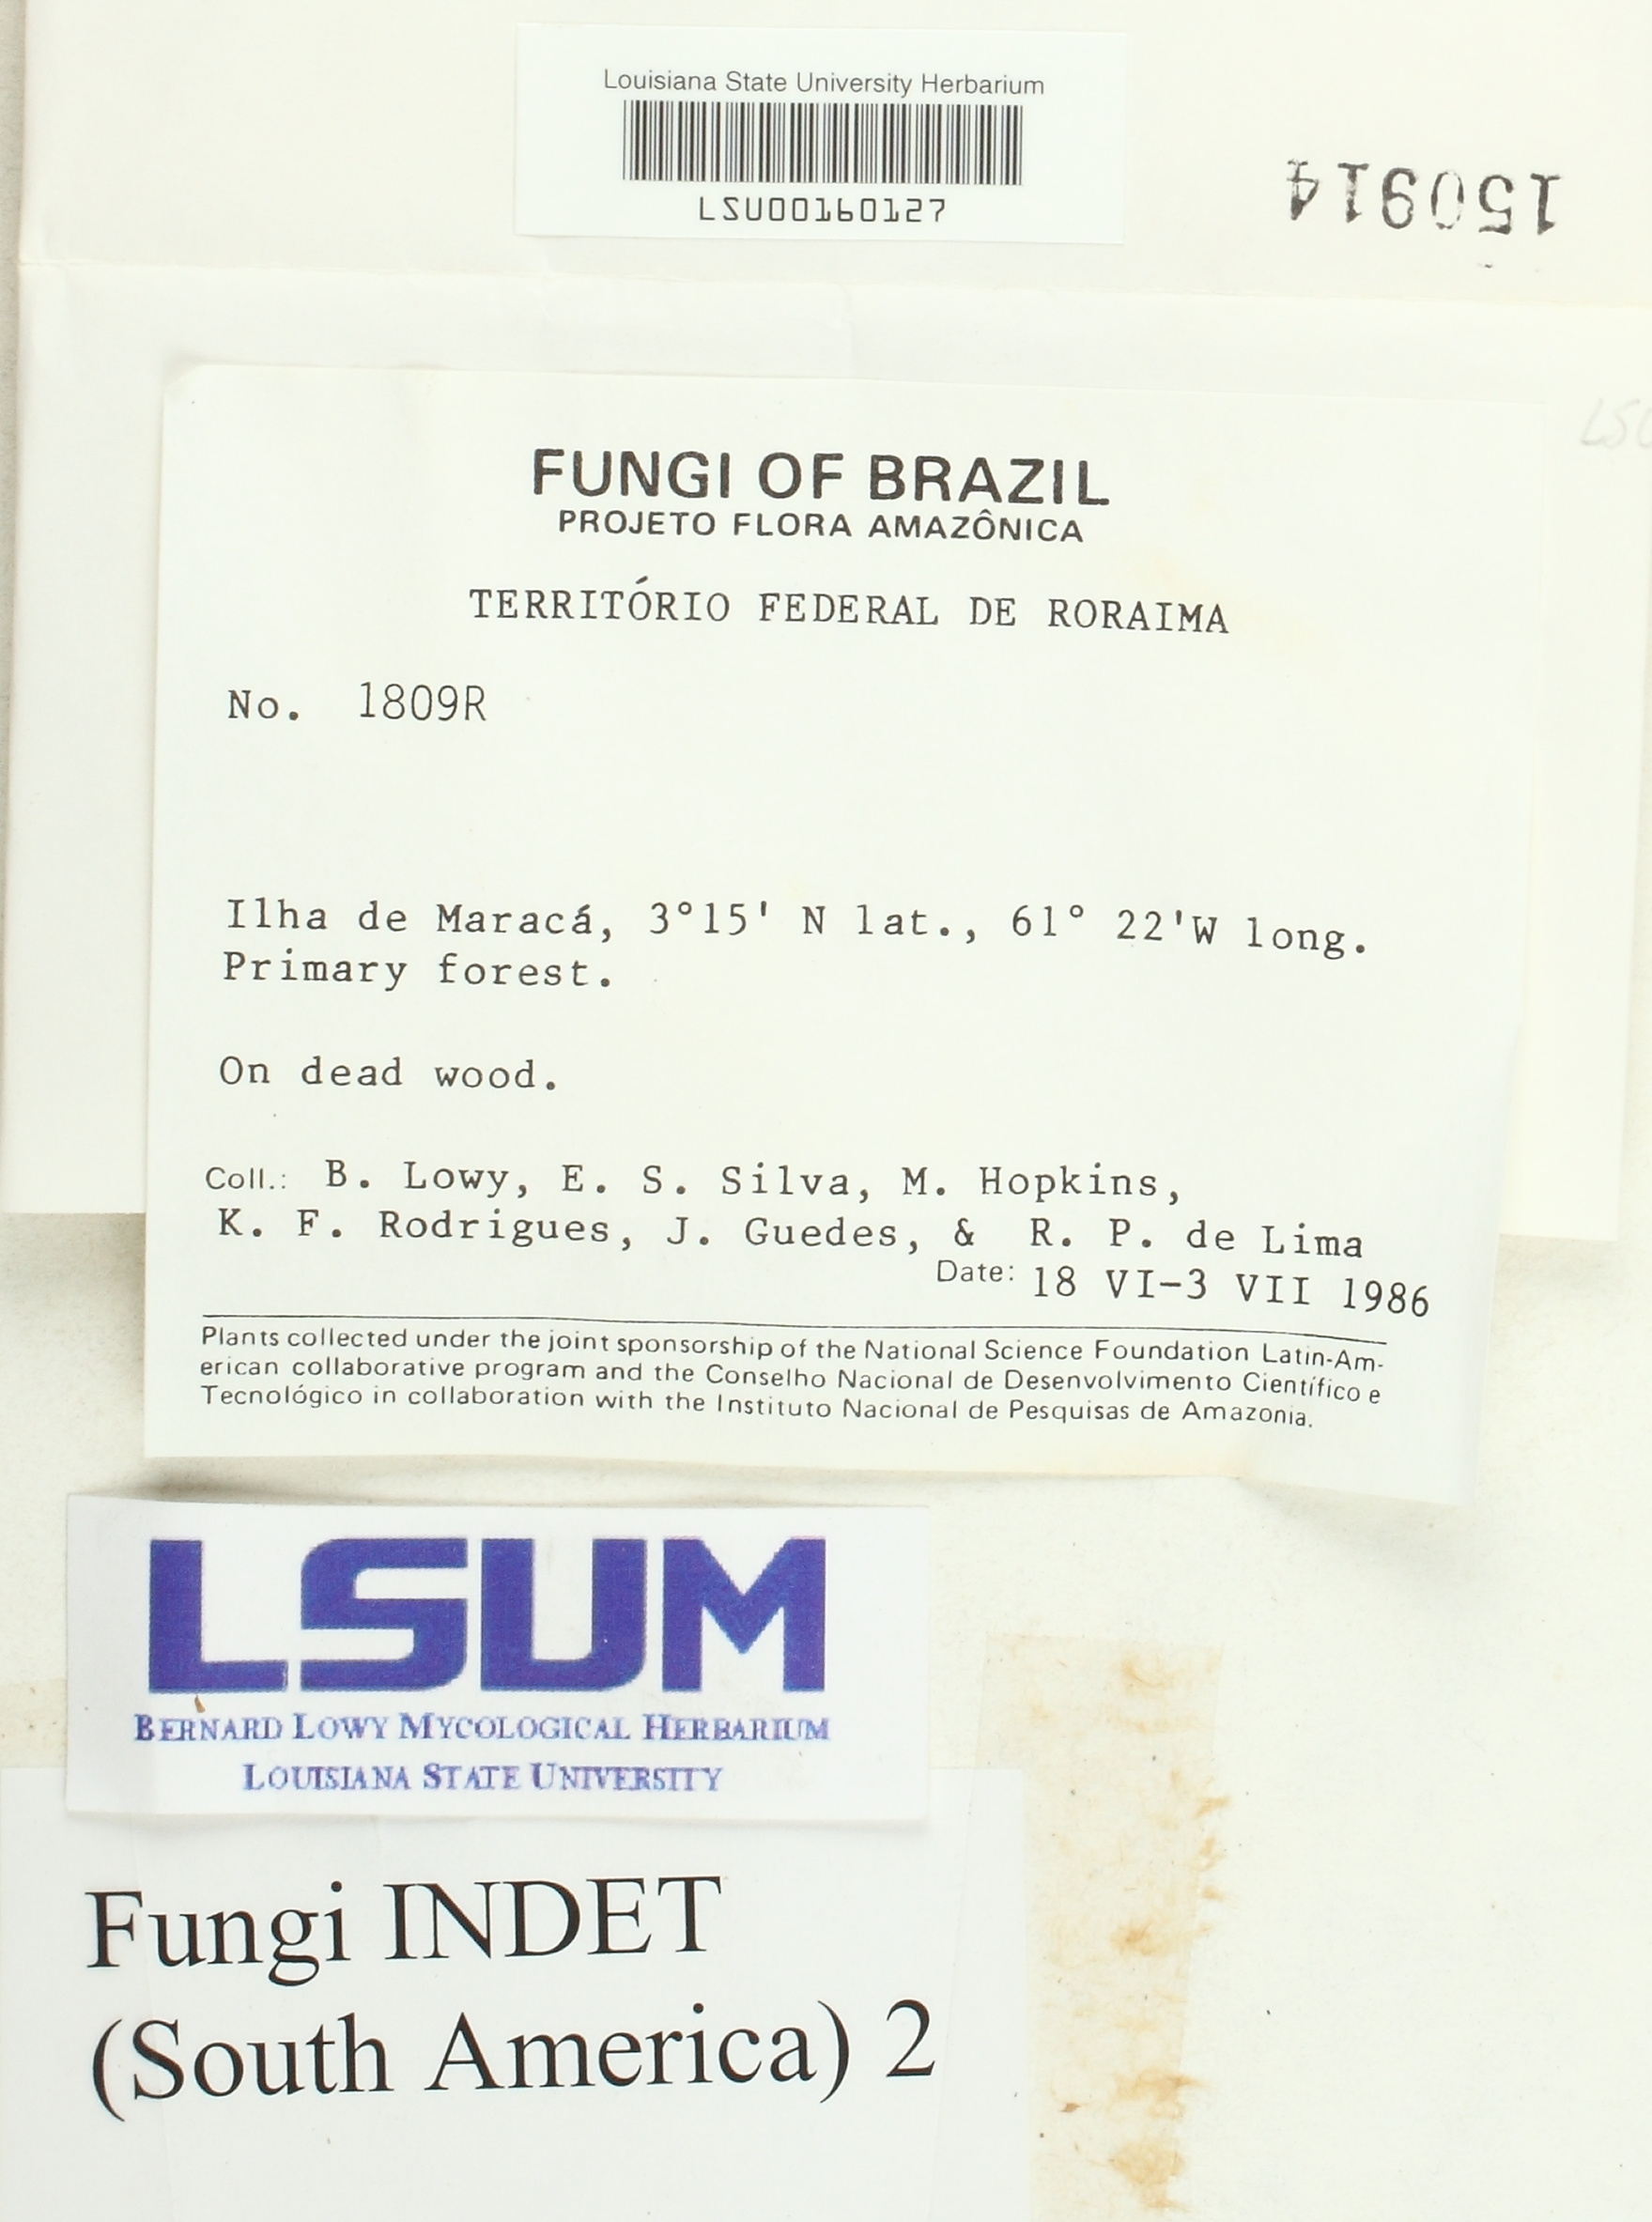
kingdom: Fungi
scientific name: Fungi
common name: Fungi
